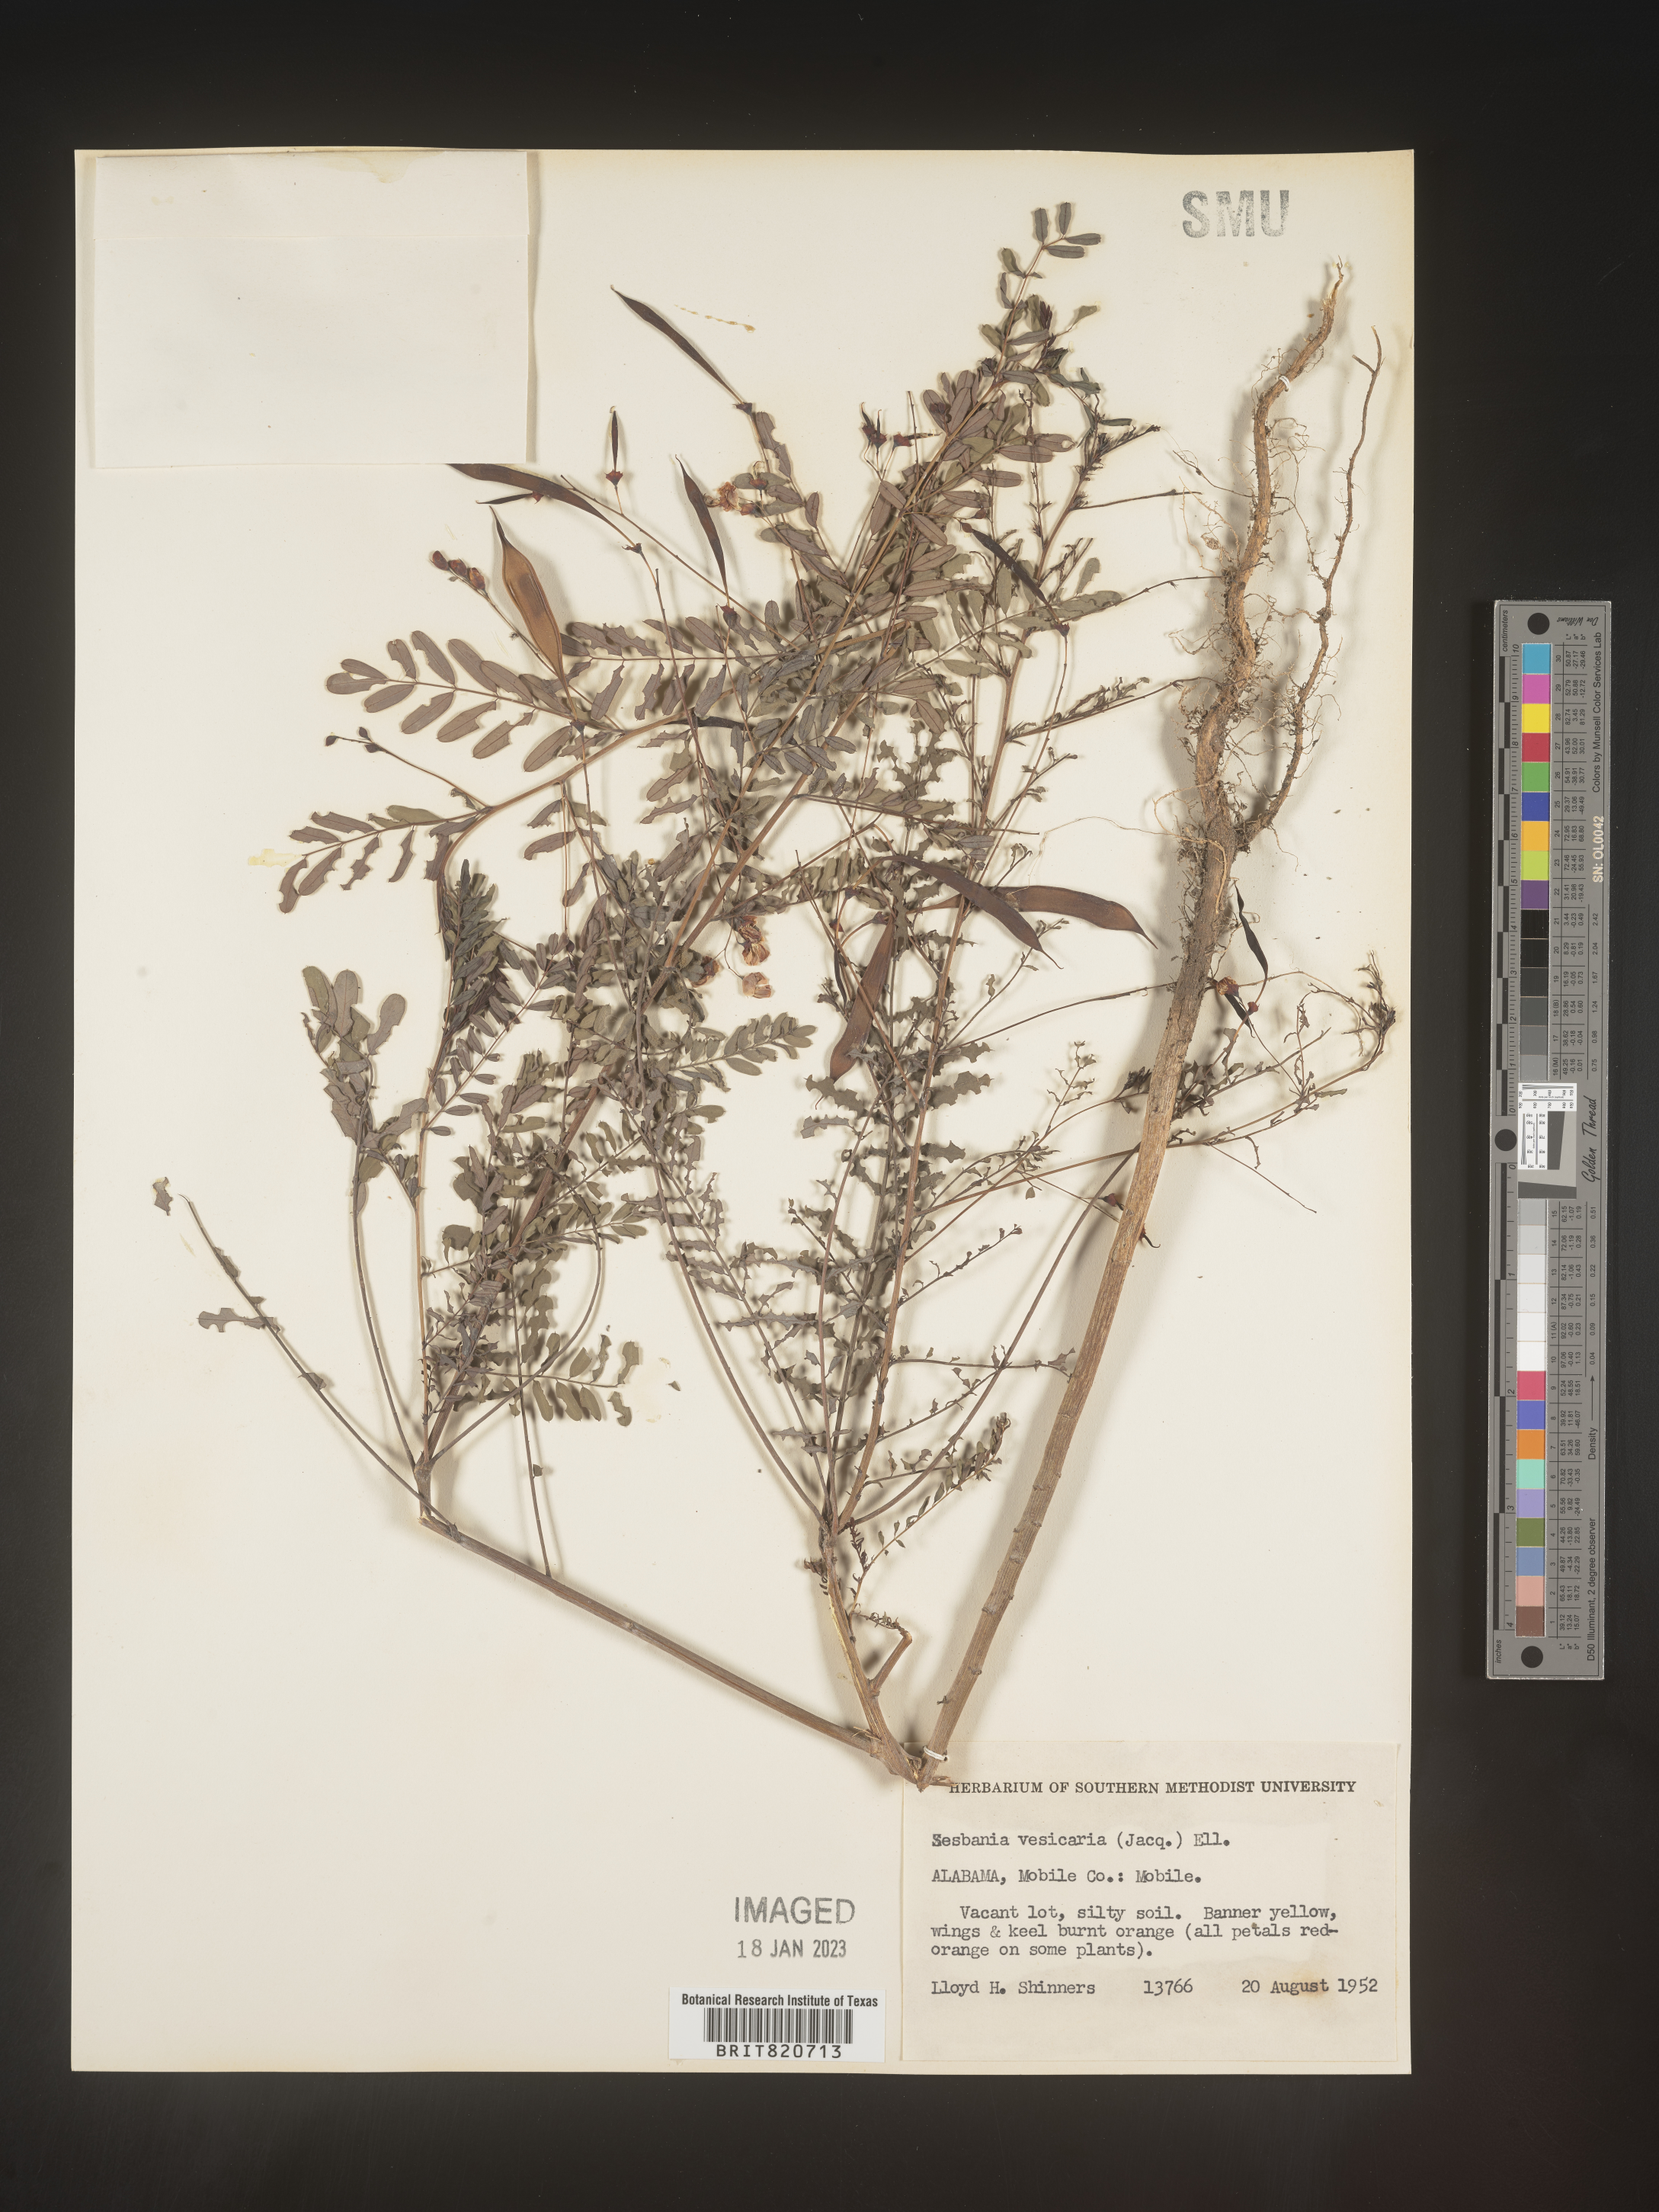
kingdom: Plantae
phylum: Tracheophyta
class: Magnoliopsida
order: Fabales
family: Fabaceae
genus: Sesbania
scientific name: Sesbania vesicaria
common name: Bagpod
